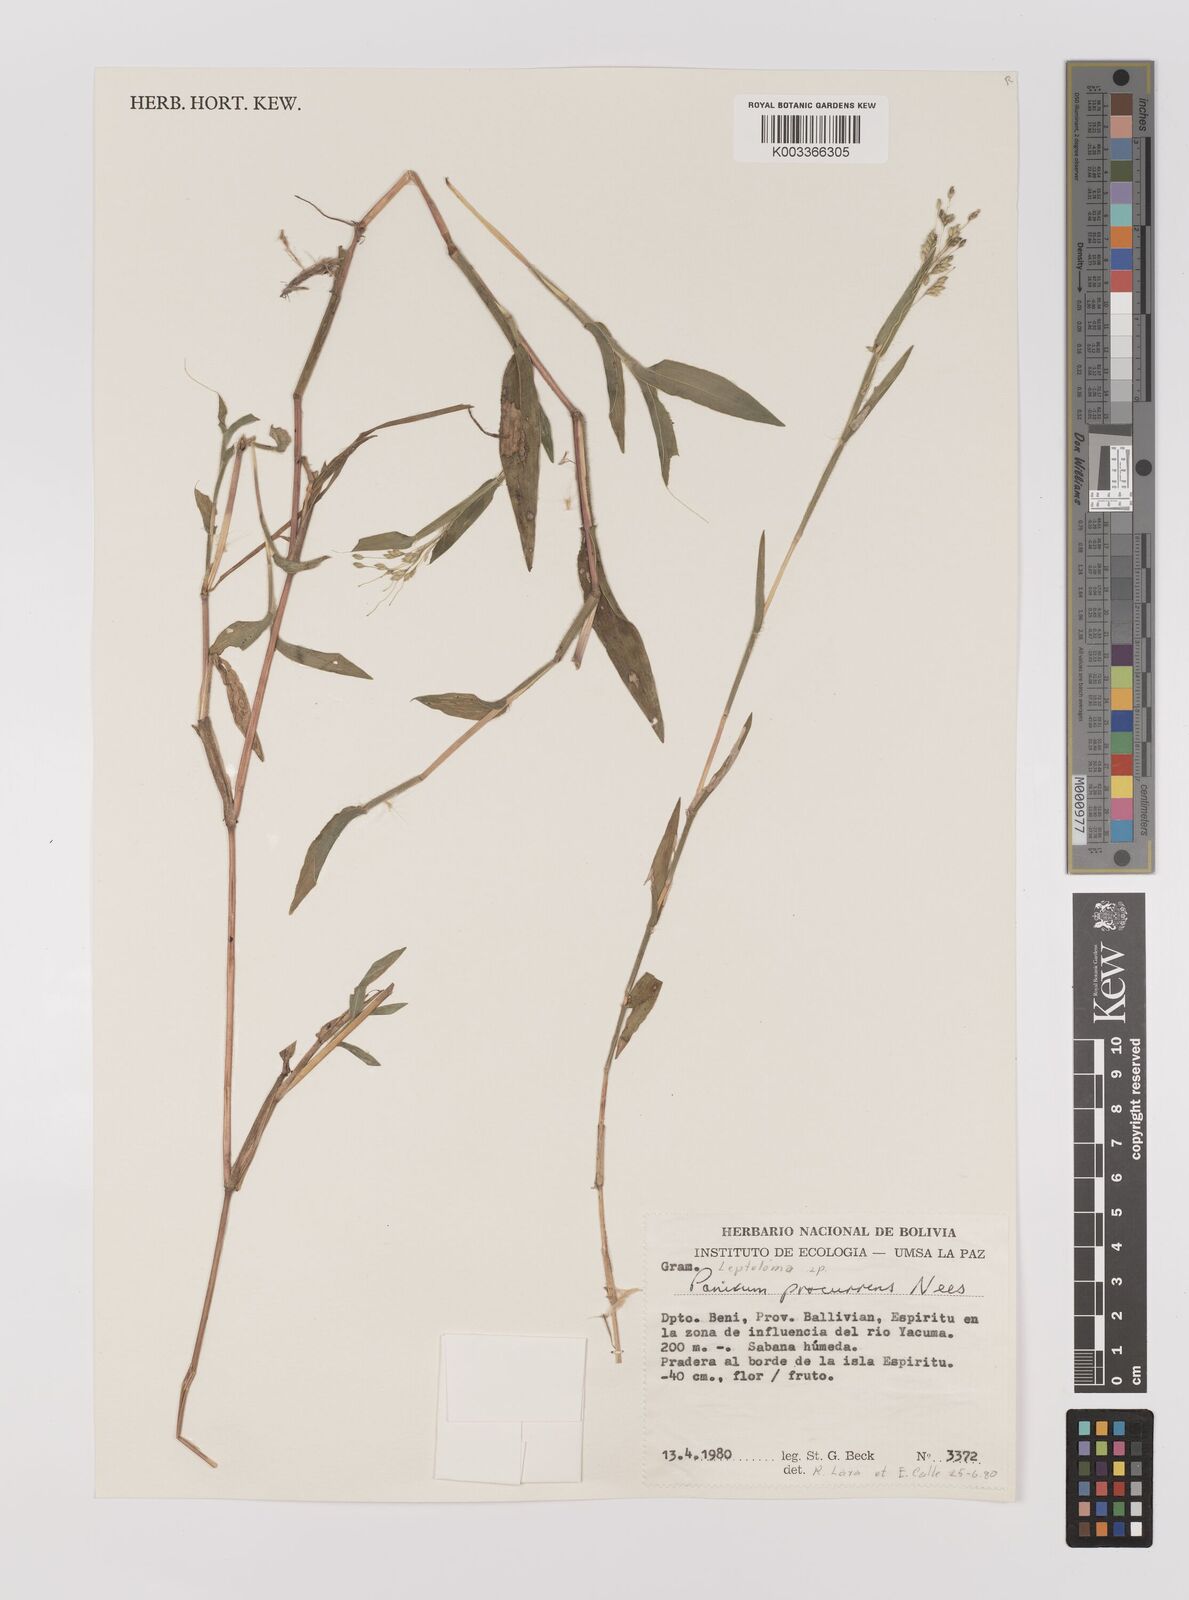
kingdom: Plantae
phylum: Tracheophyta
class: Liliopsida
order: Poales
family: Poaceae
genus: Oedochloa
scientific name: Oedochloa procurrens
